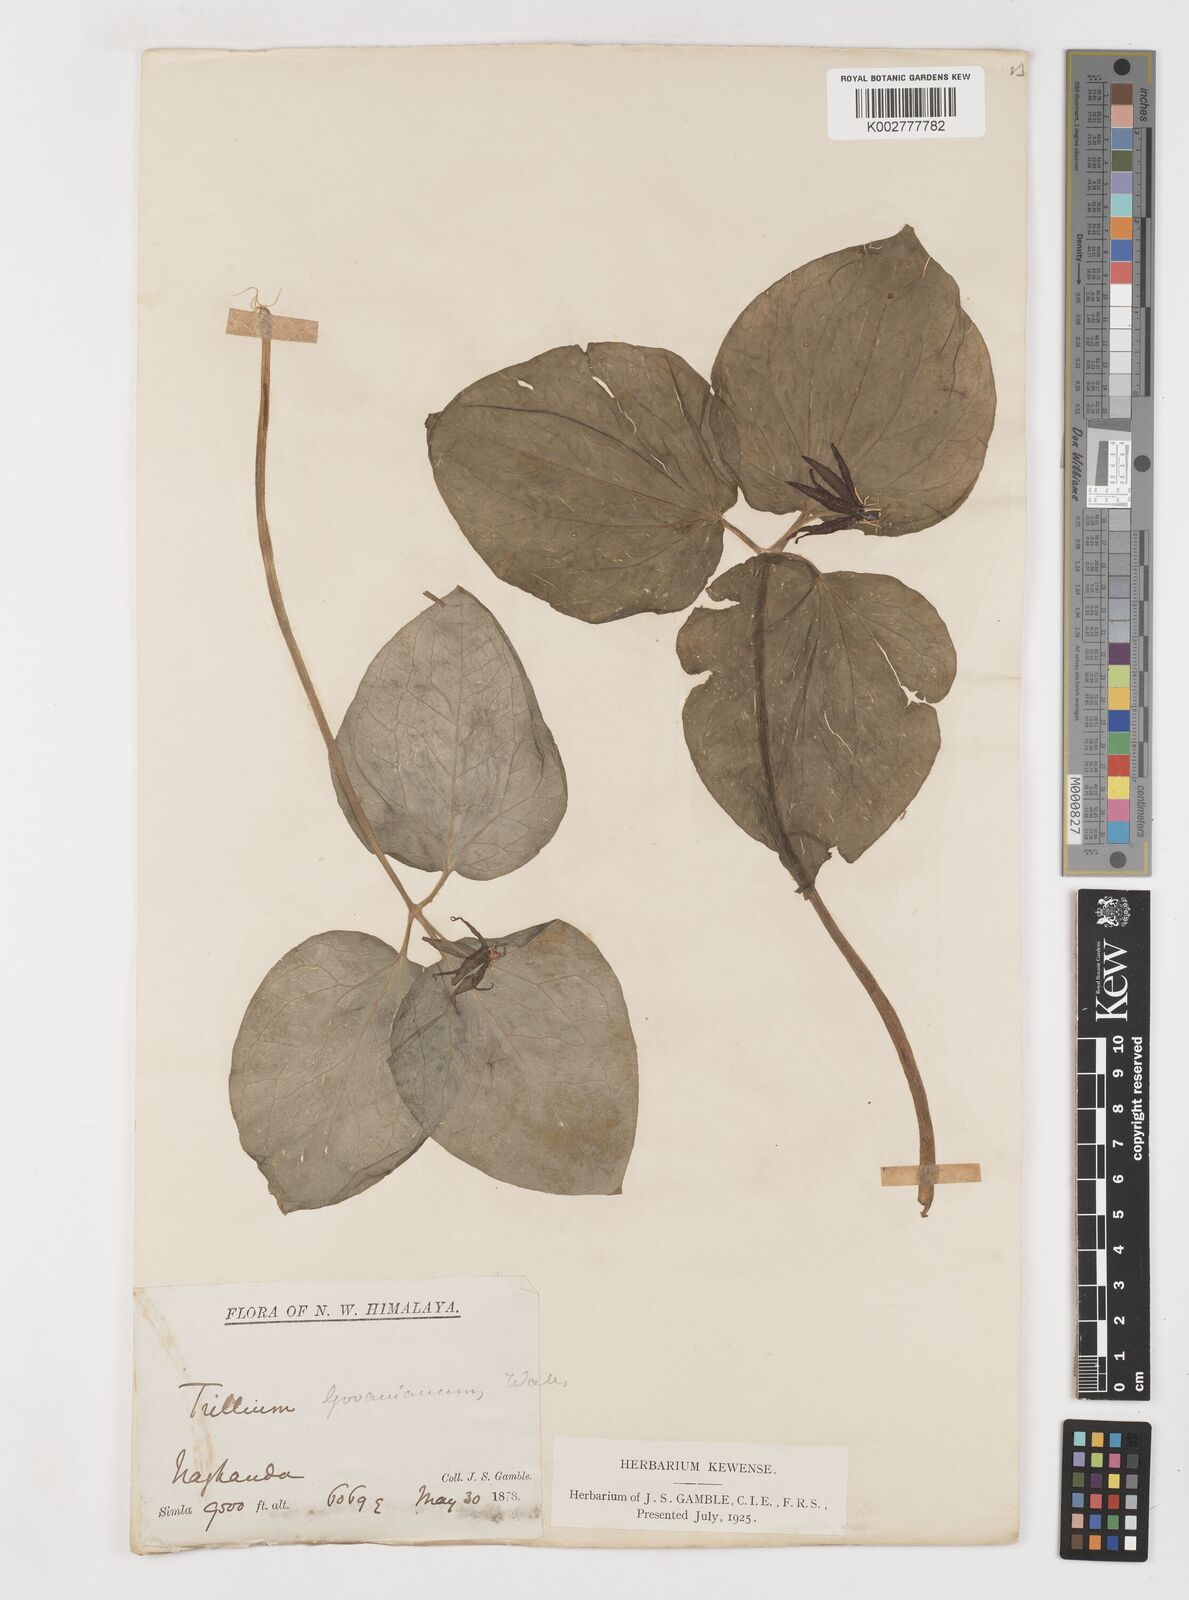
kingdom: Plantae
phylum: Tracheophyta
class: Liliopsida
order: Liliales
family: Melanthiaceae
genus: Trillium
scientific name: Trillium govanianum
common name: Himalayan trillium
